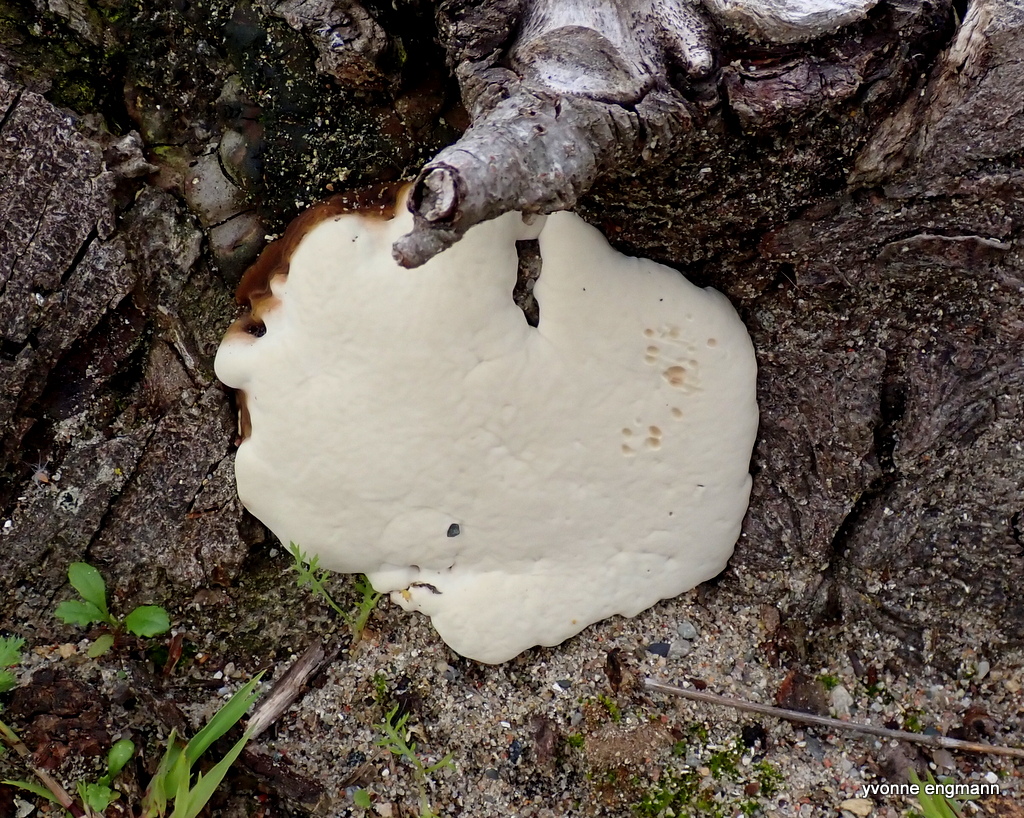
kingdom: Fungi
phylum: Basidiomycota
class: Agaricomycetes
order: Polyporales
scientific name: Polyporales
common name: poresvampordenen
